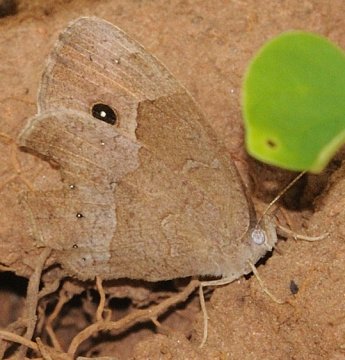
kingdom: Animalia
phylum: Arthropoda
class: Insecta
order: Lepidoptera
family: Nymphalidae
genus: Bicyclus
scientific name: Bicyclus cooksoni
